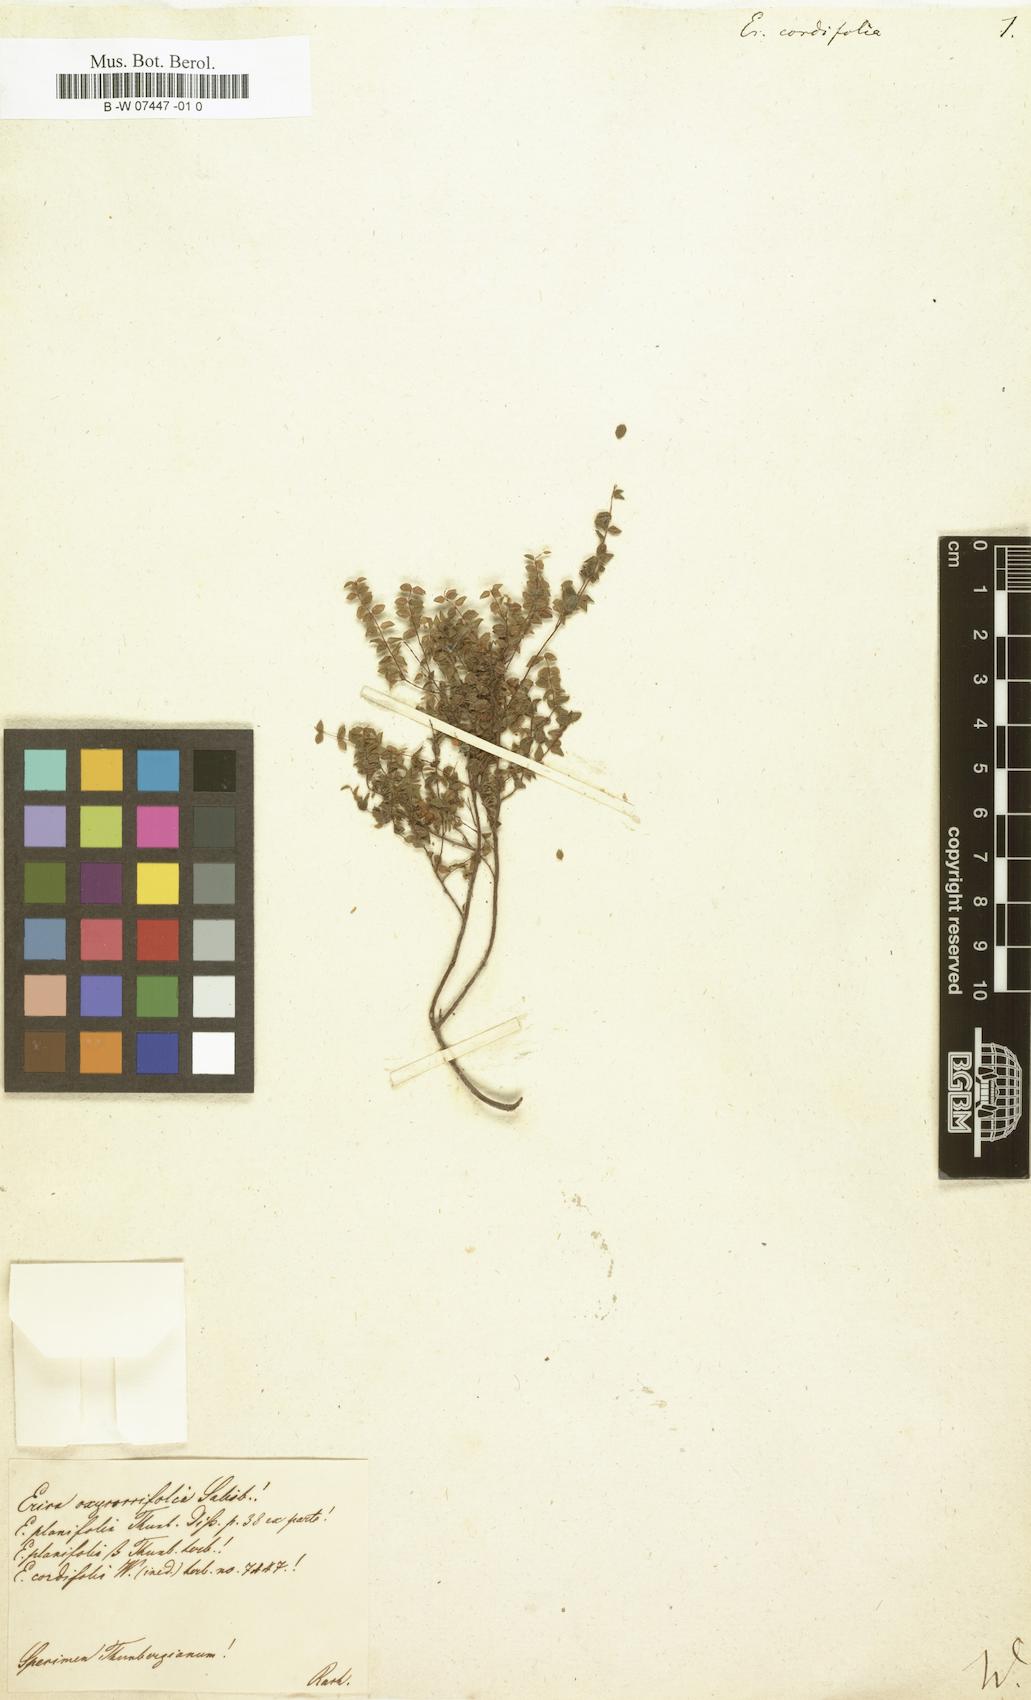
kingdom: Plantae
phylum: Tracheophyta
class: Magnoliopsida
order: Ericales
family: Ericaceae
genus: Erica
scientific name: Erica corifolia
